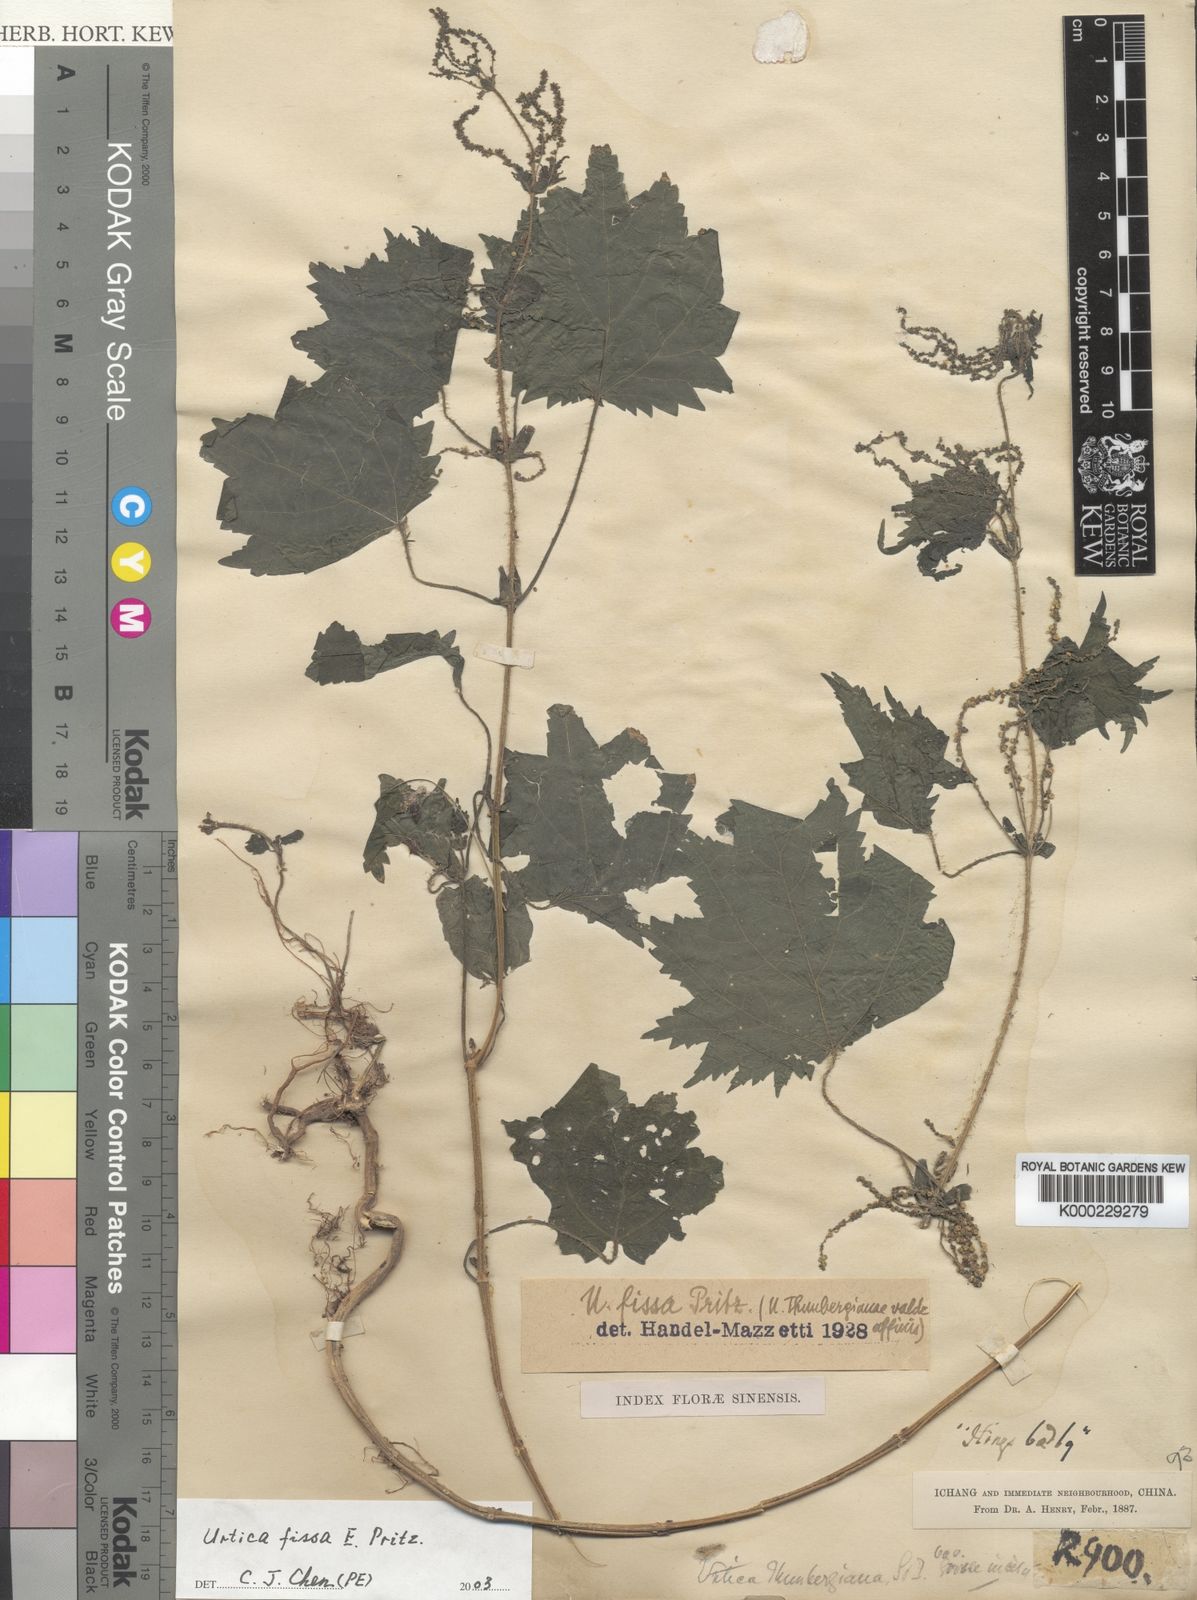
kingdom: Plantae
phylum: Tracheophyta
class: Magnoliopsida
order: Rosales
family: Urticaceae
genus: Urtica
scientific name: Urtica
